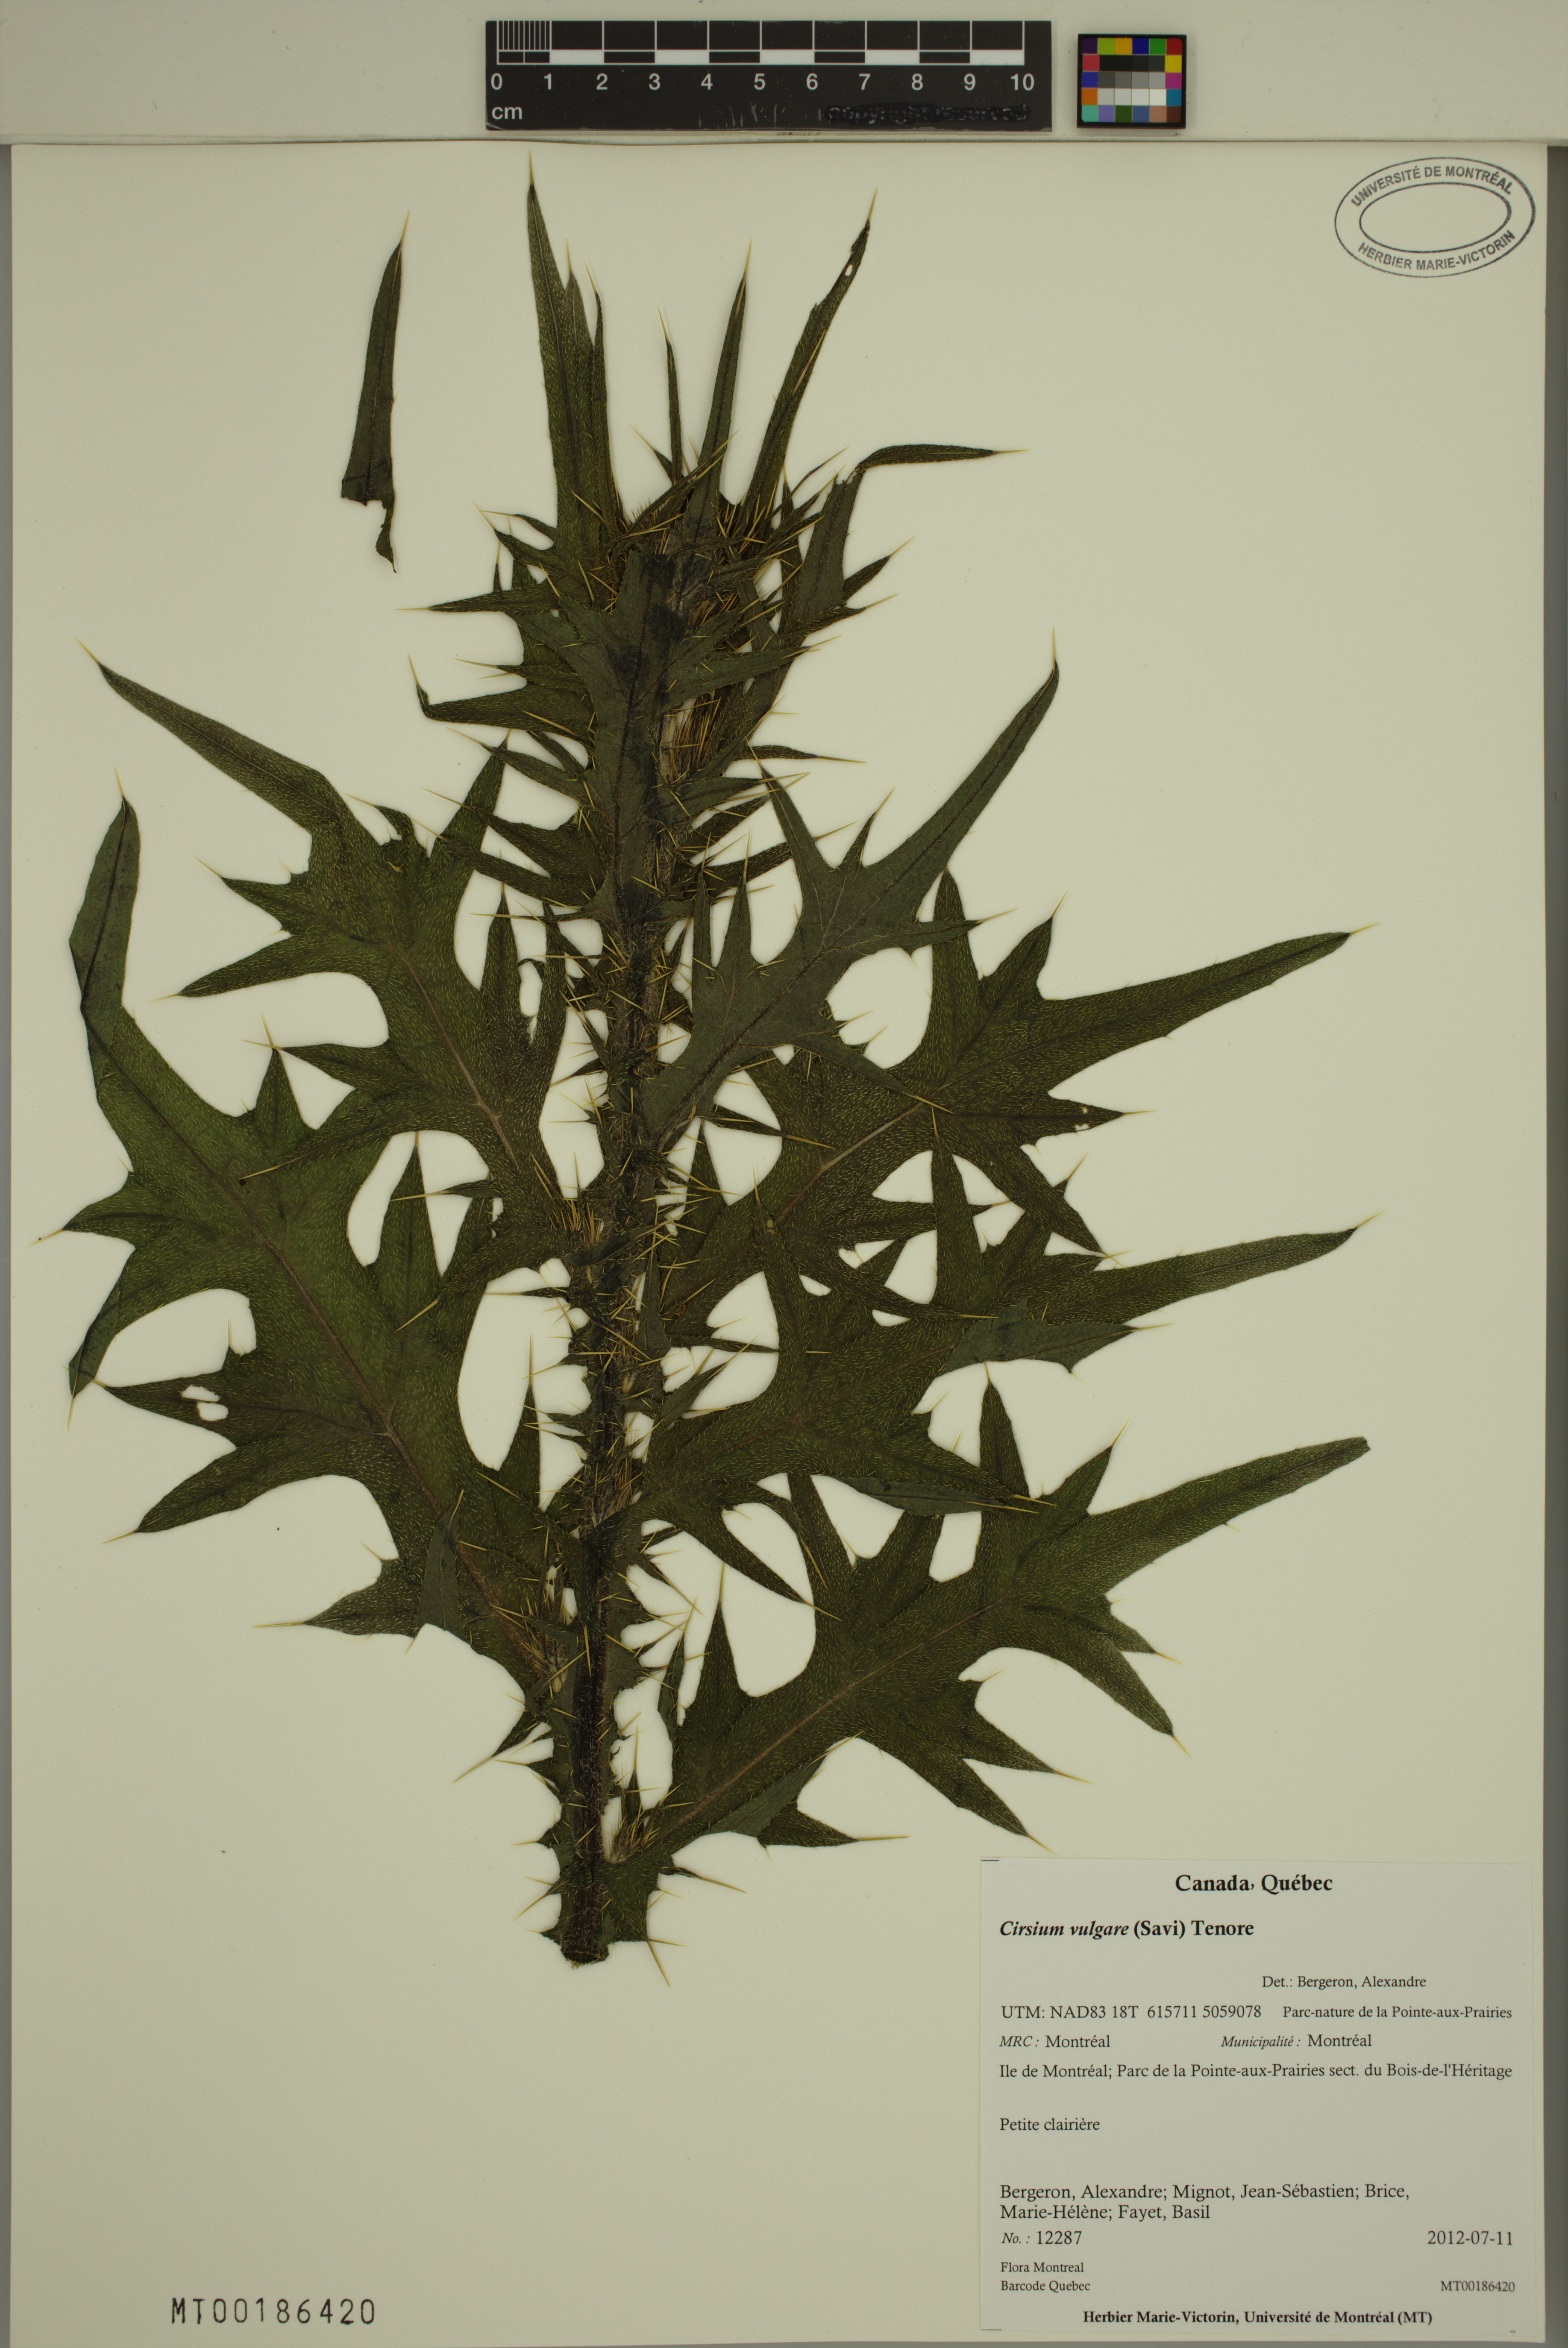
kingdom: Plantae
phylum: Tracheophyta
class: Magnoliopsida
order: Asterales
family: Asteraceae
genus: Cirsium
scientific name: Cirsium vulgare
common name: Bull thistle
